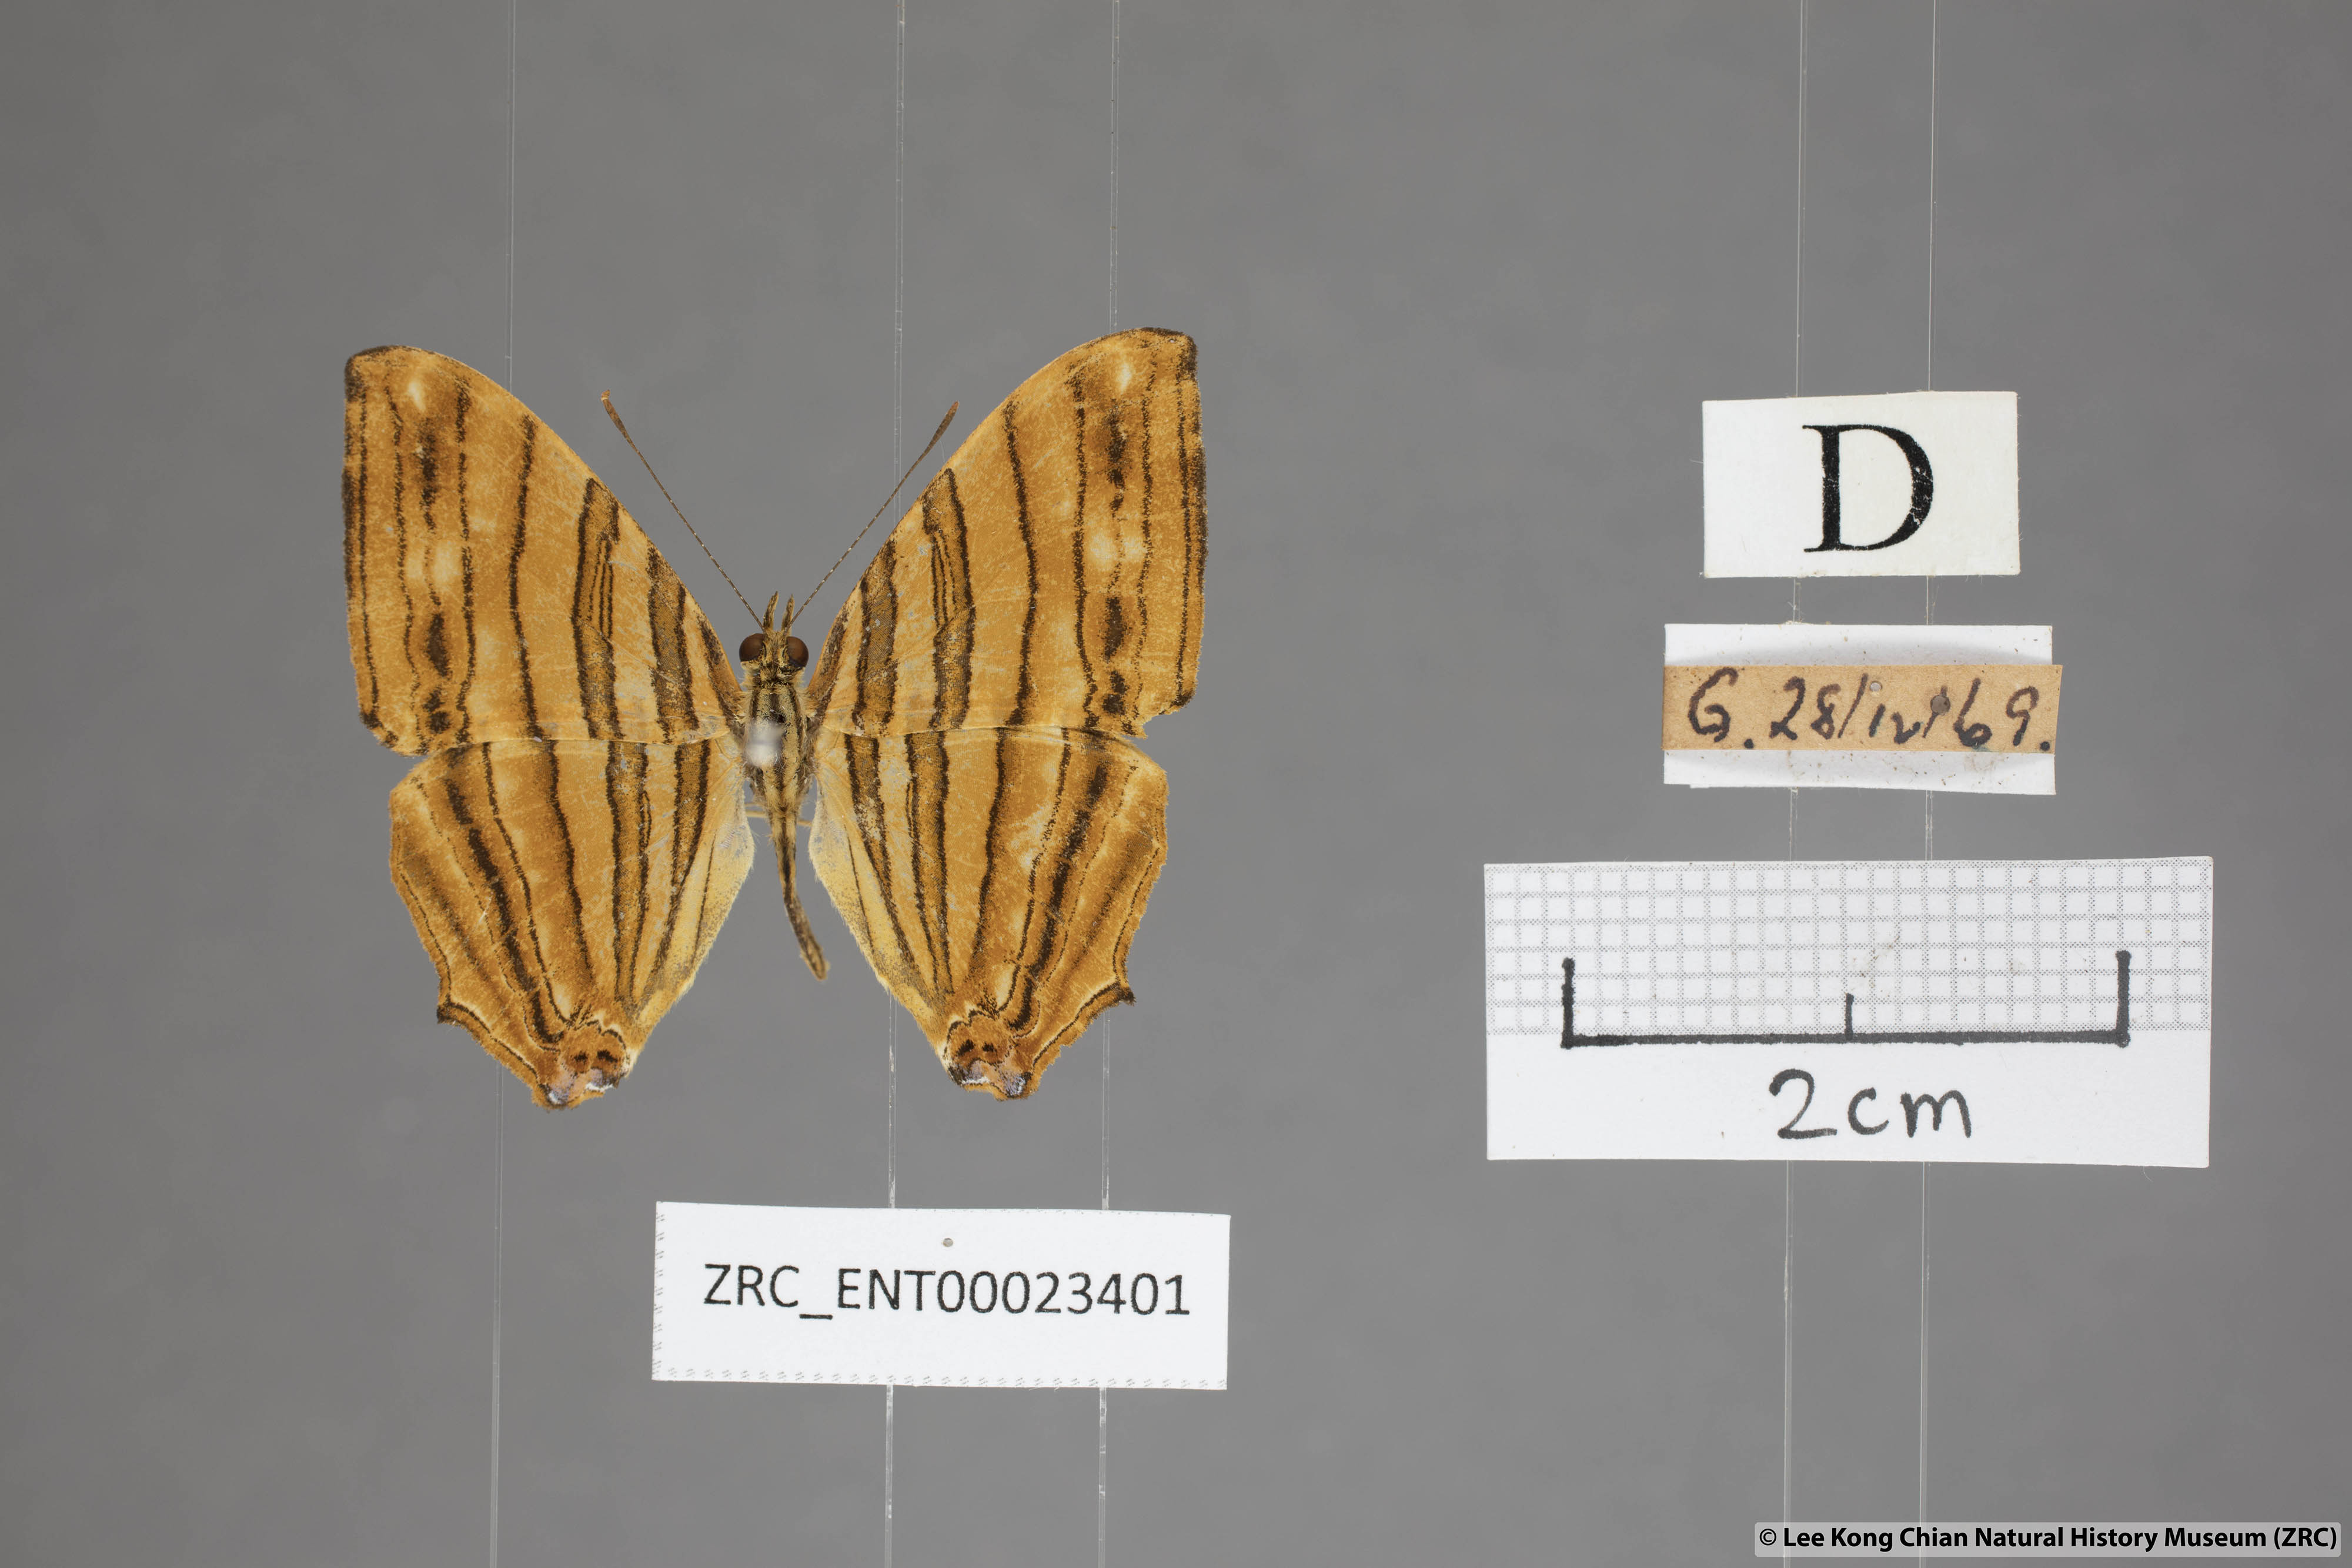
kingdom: Animalia
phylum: Arthropoda
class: Insecta
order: Lepidoptera
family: Nymphalidae
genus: Chersonesia
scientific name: Chersonesia risa
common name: Common maplet
